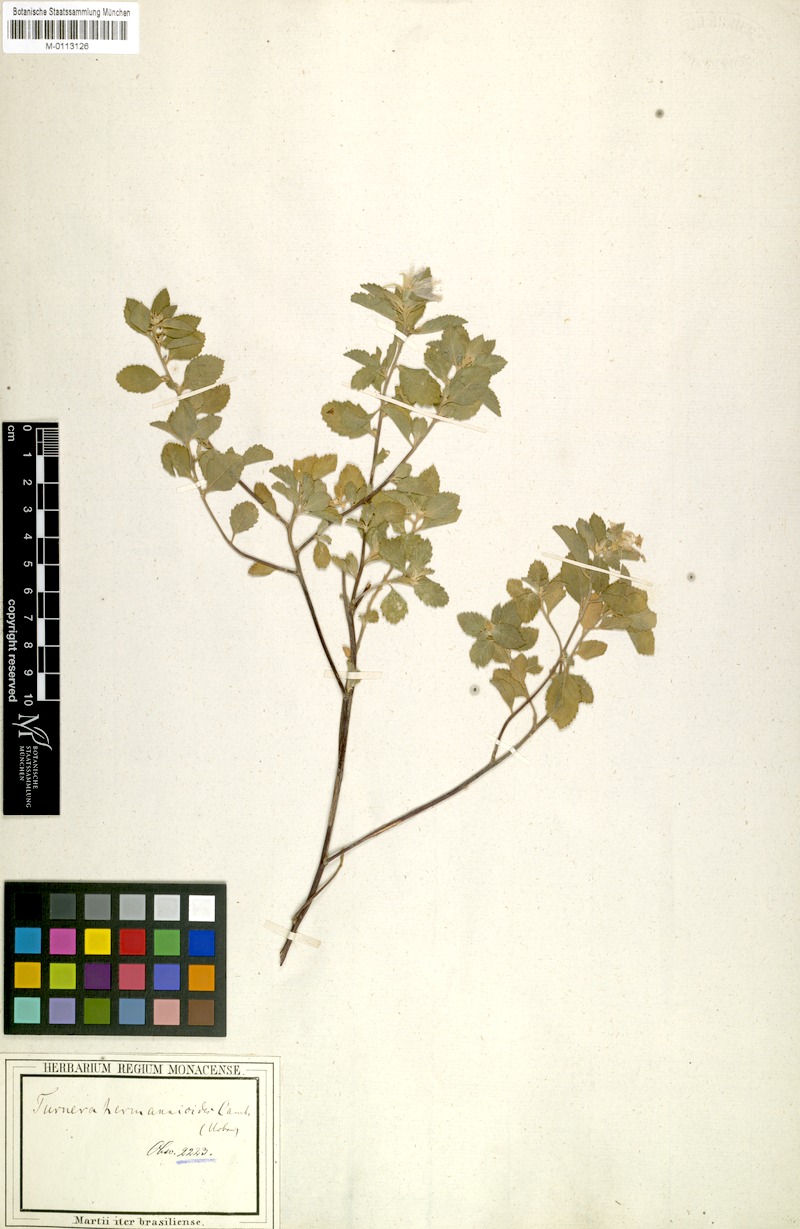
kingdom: Plantae
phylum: Tracheophyta
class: Magnoliopsida
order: Malpighiales
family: Turneraceae
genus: Turnera
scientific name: Turnera hermannioides
